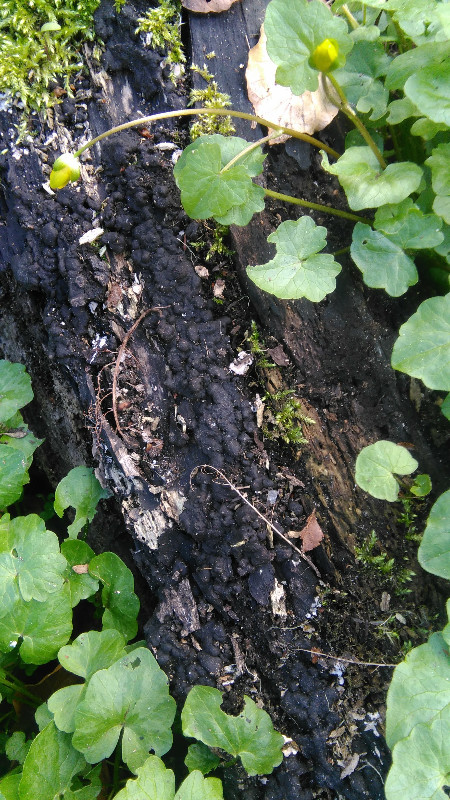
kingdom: Fungi
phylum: Ascomycota
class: Sordariomycetes
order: Xylariales
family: Xylariaceae
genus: Kretzschmaria
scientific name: Kretzschmaria deusta
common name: stor kulsvamp
